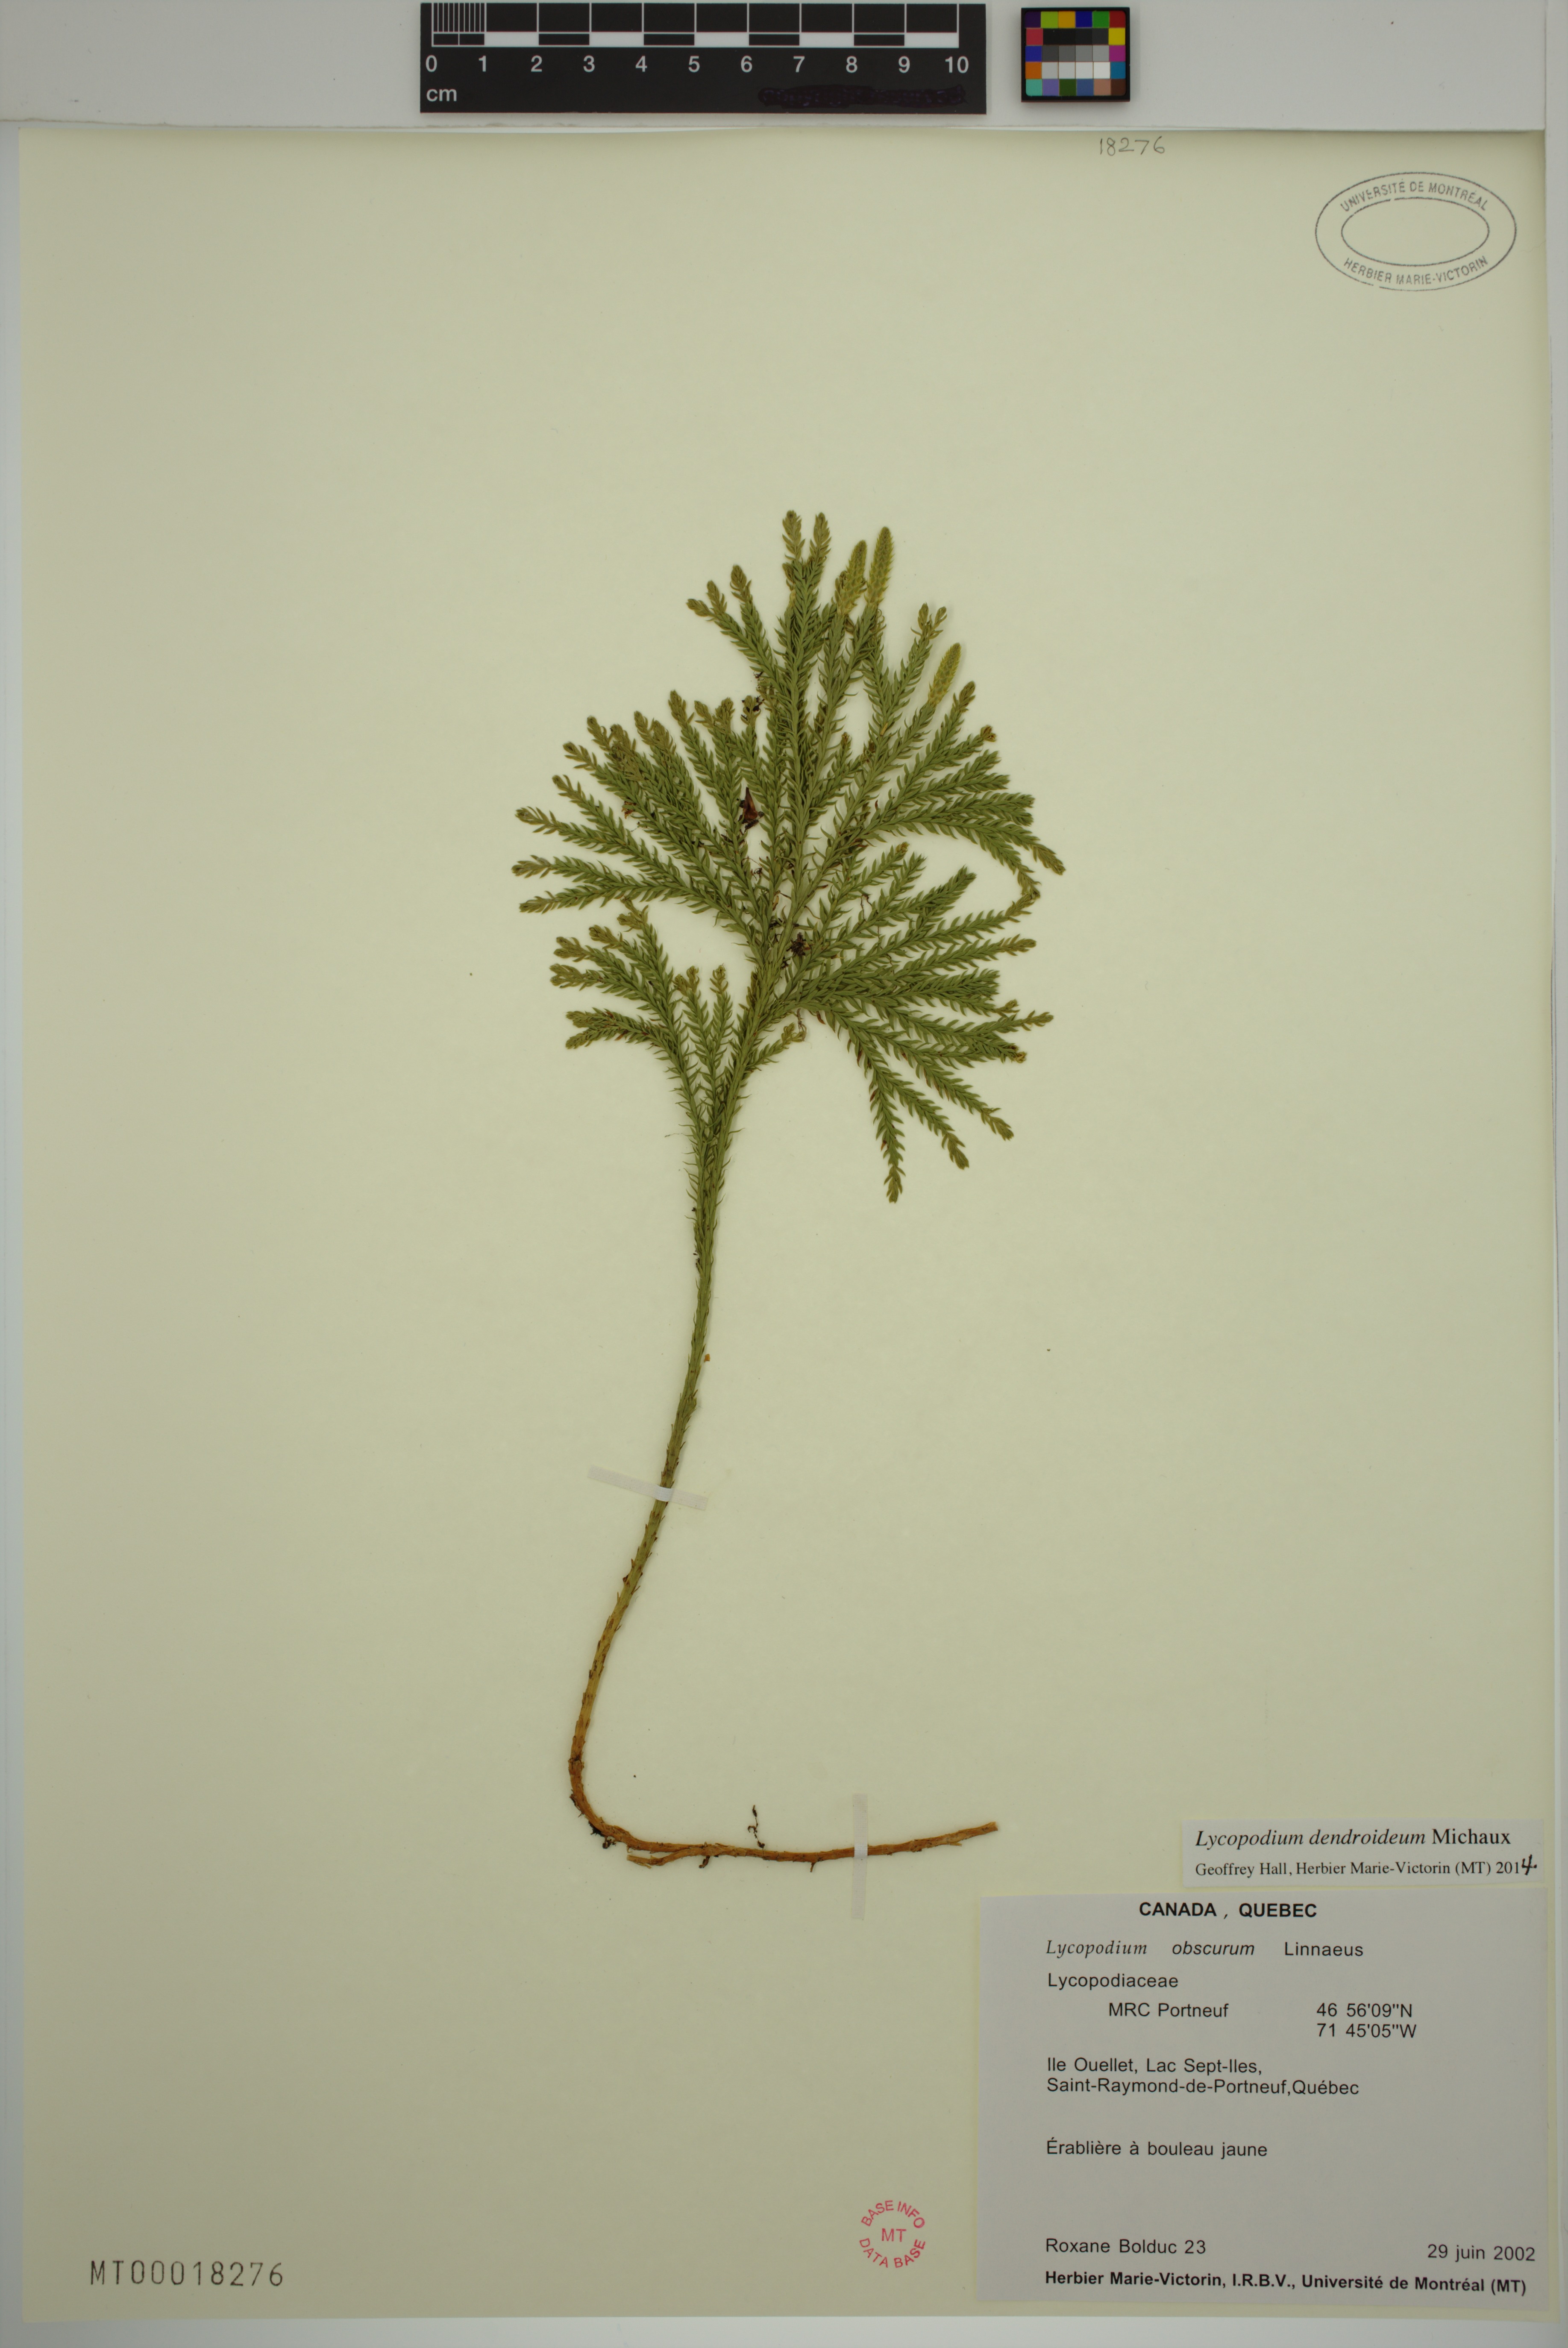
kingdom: Plantae
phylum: Tracheophyta
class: Lycopodiopsida
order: Lycopodiales
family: Lycopodiaceae
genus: Dendrolycopodium
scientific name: Dendrolycopodium obscurum
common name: Common ground-pine
